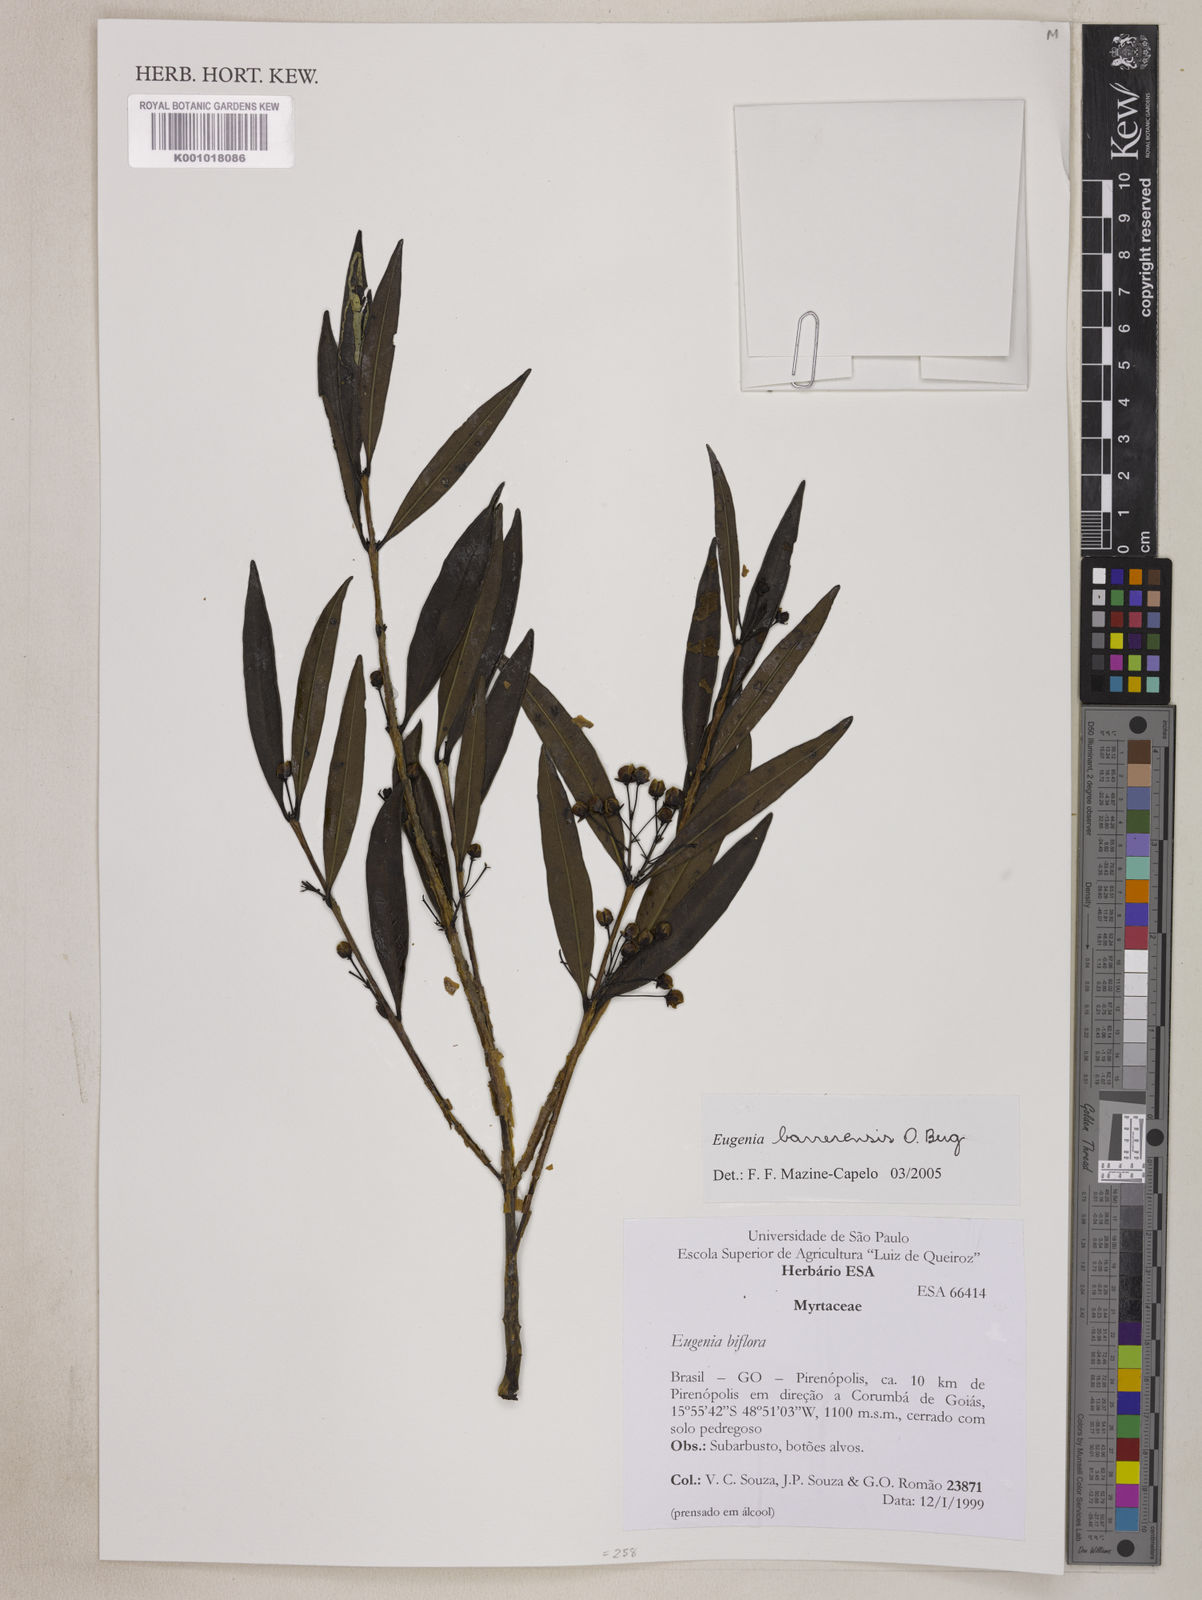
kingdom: Plantae
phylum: Tracheophyta
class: Magnoliopsida
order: Myrtales
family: Myrtaceae
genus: Eugenia
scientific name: Eugenia complicata
